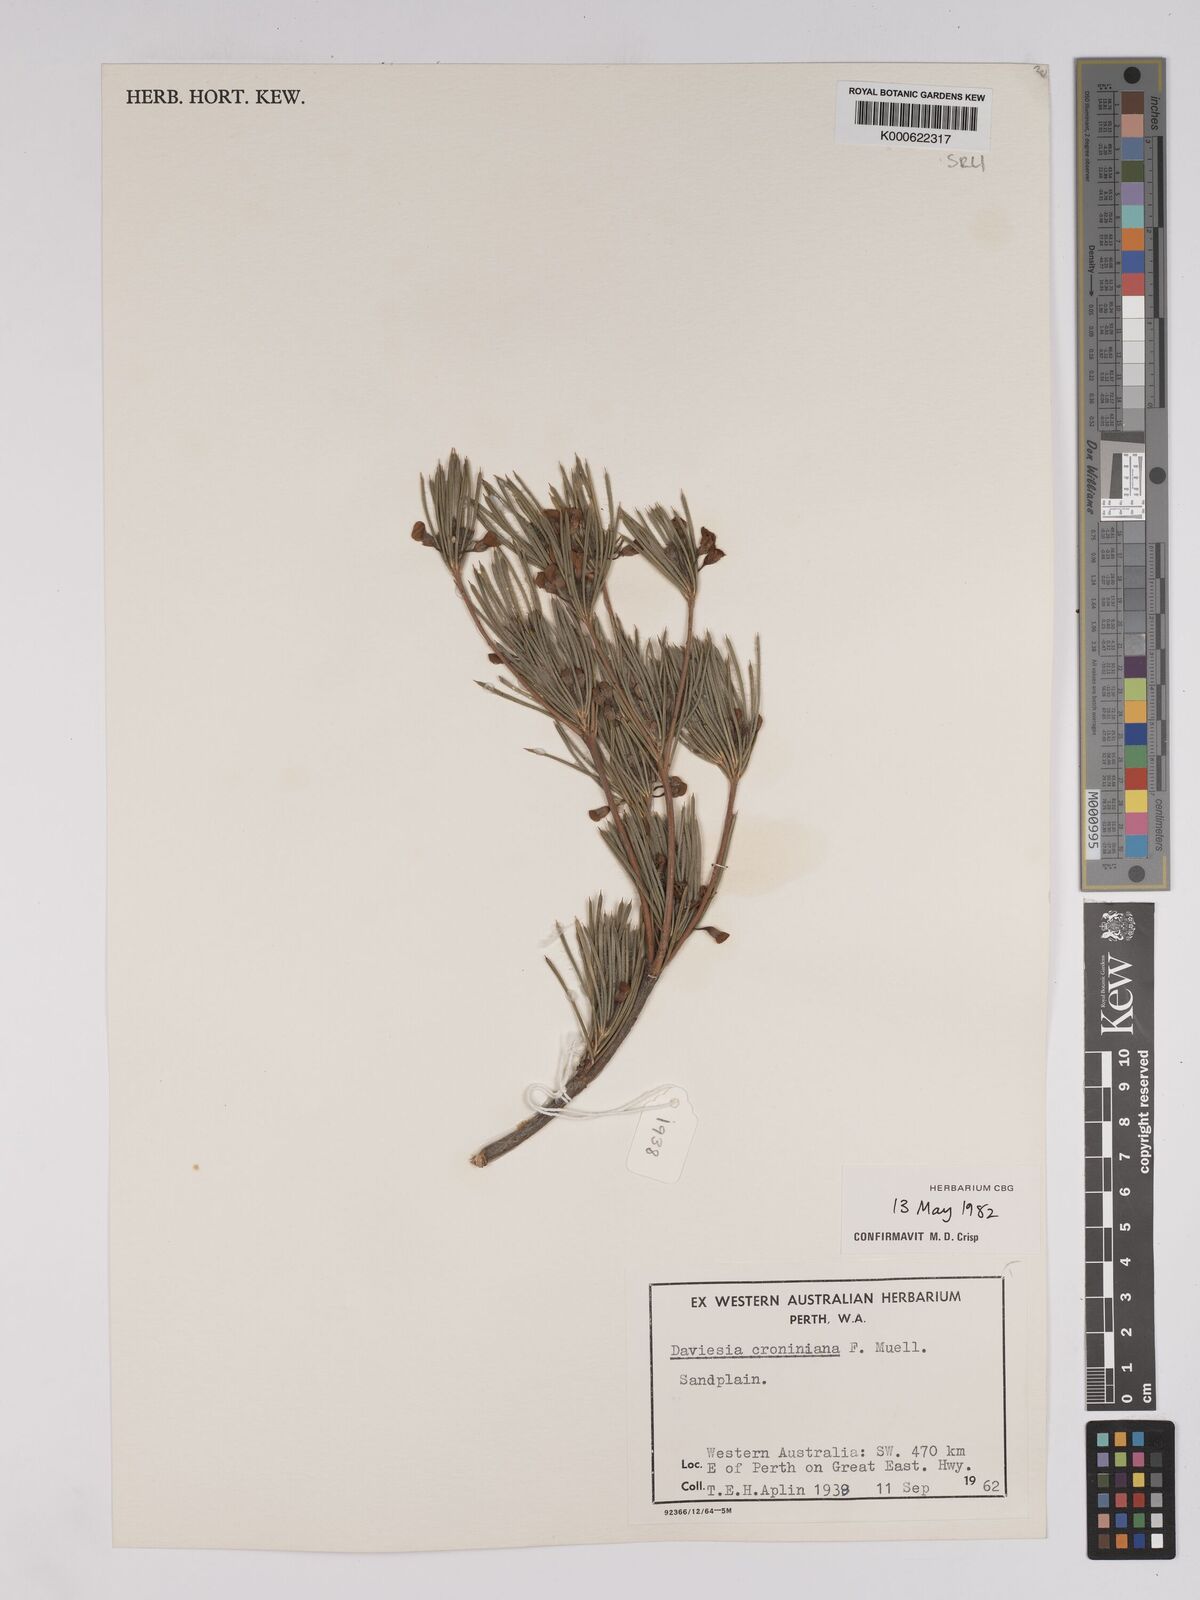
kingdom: Plantae
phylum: Tracheophyta
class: Magnoliopsida
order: Fabales
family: Fabaceae
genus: Daviesia
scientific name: Daviesia croniniana
